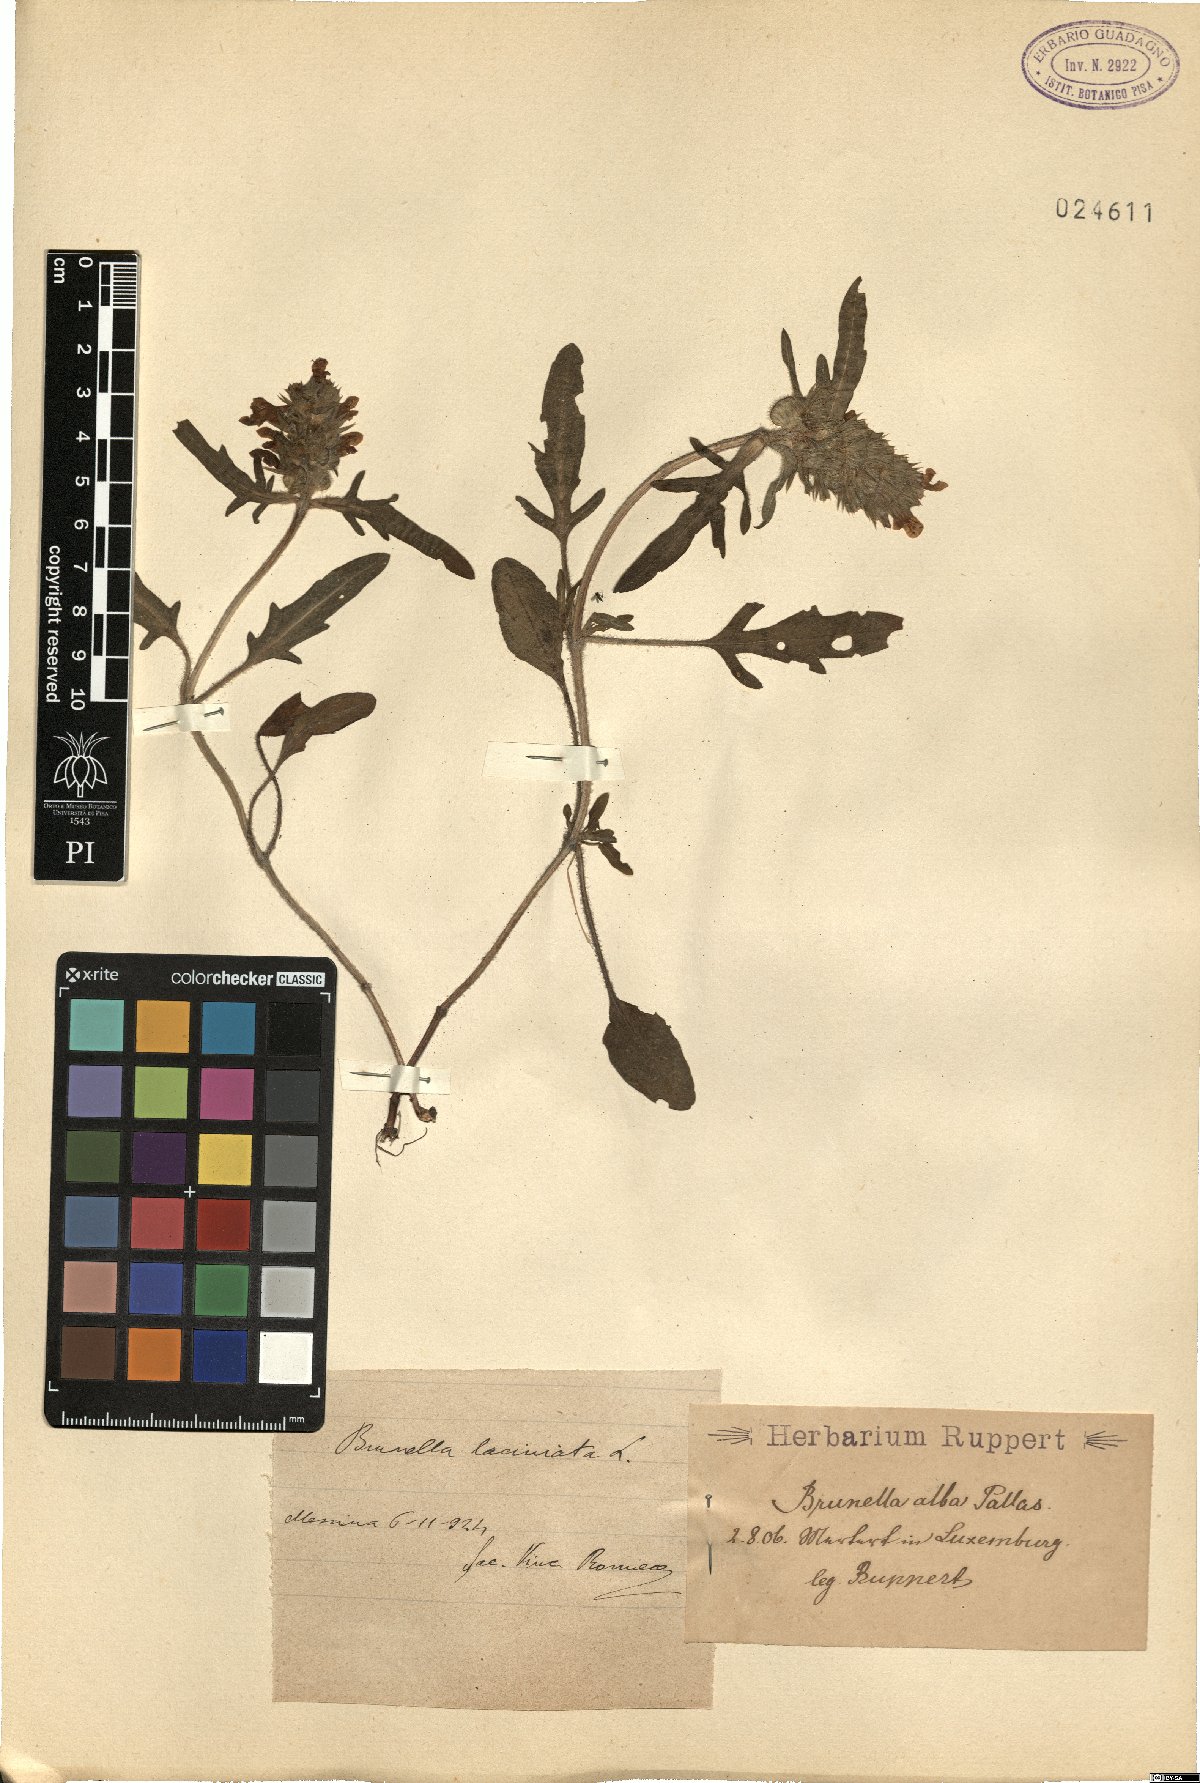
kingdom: Plantae
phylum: Tracheophyta
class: Magnoliopsida
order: Lamiales
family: Lamiaceae
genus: Prunella
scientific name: Prunella laciniata
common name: Cut-leaved selfheal
